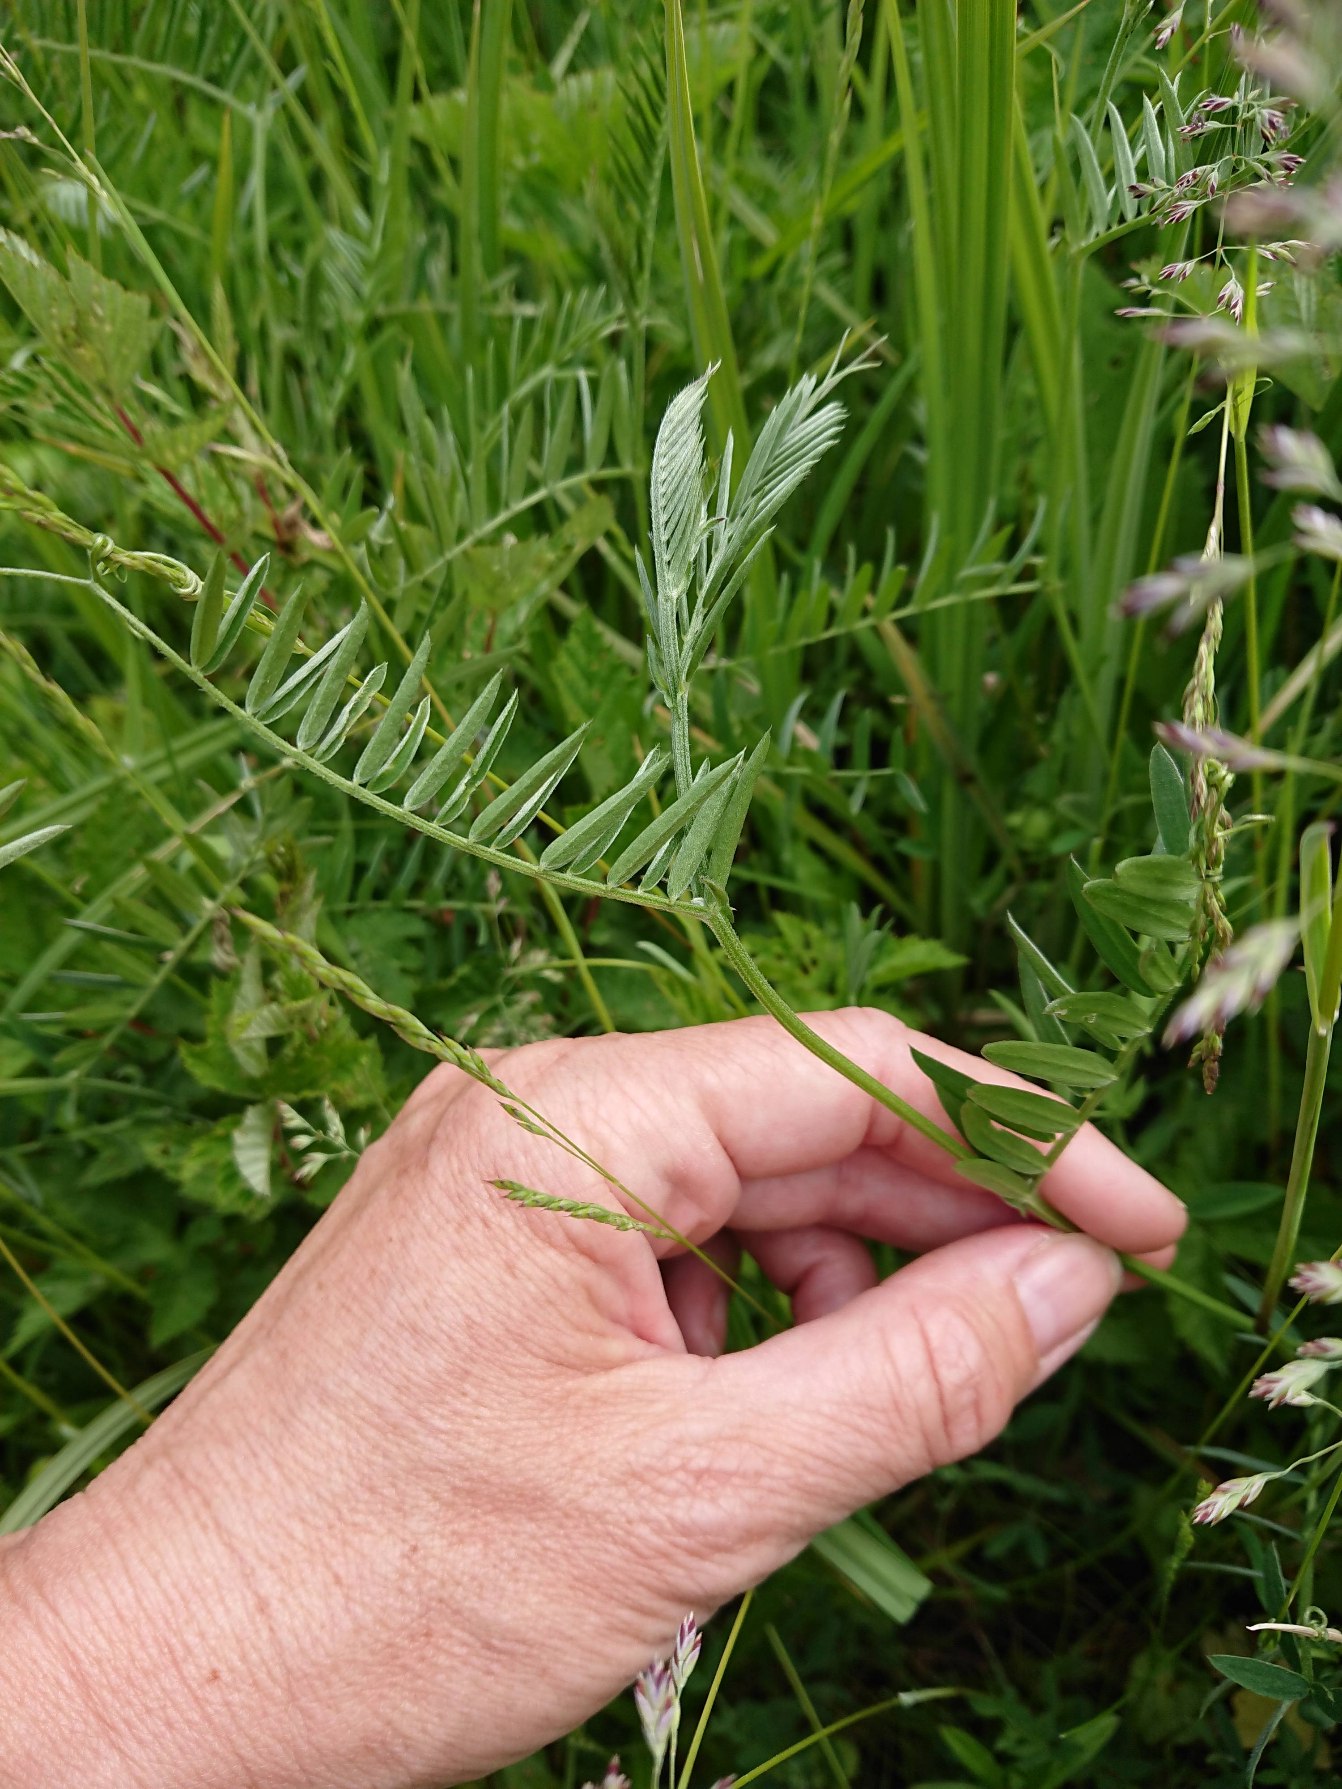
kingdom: Plantae
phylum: Tracheophyta
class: Magnoliopsida
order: Fabales
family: Fabaceae
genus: Vicia
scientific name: Vicia cracca
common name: Muse-vikke
